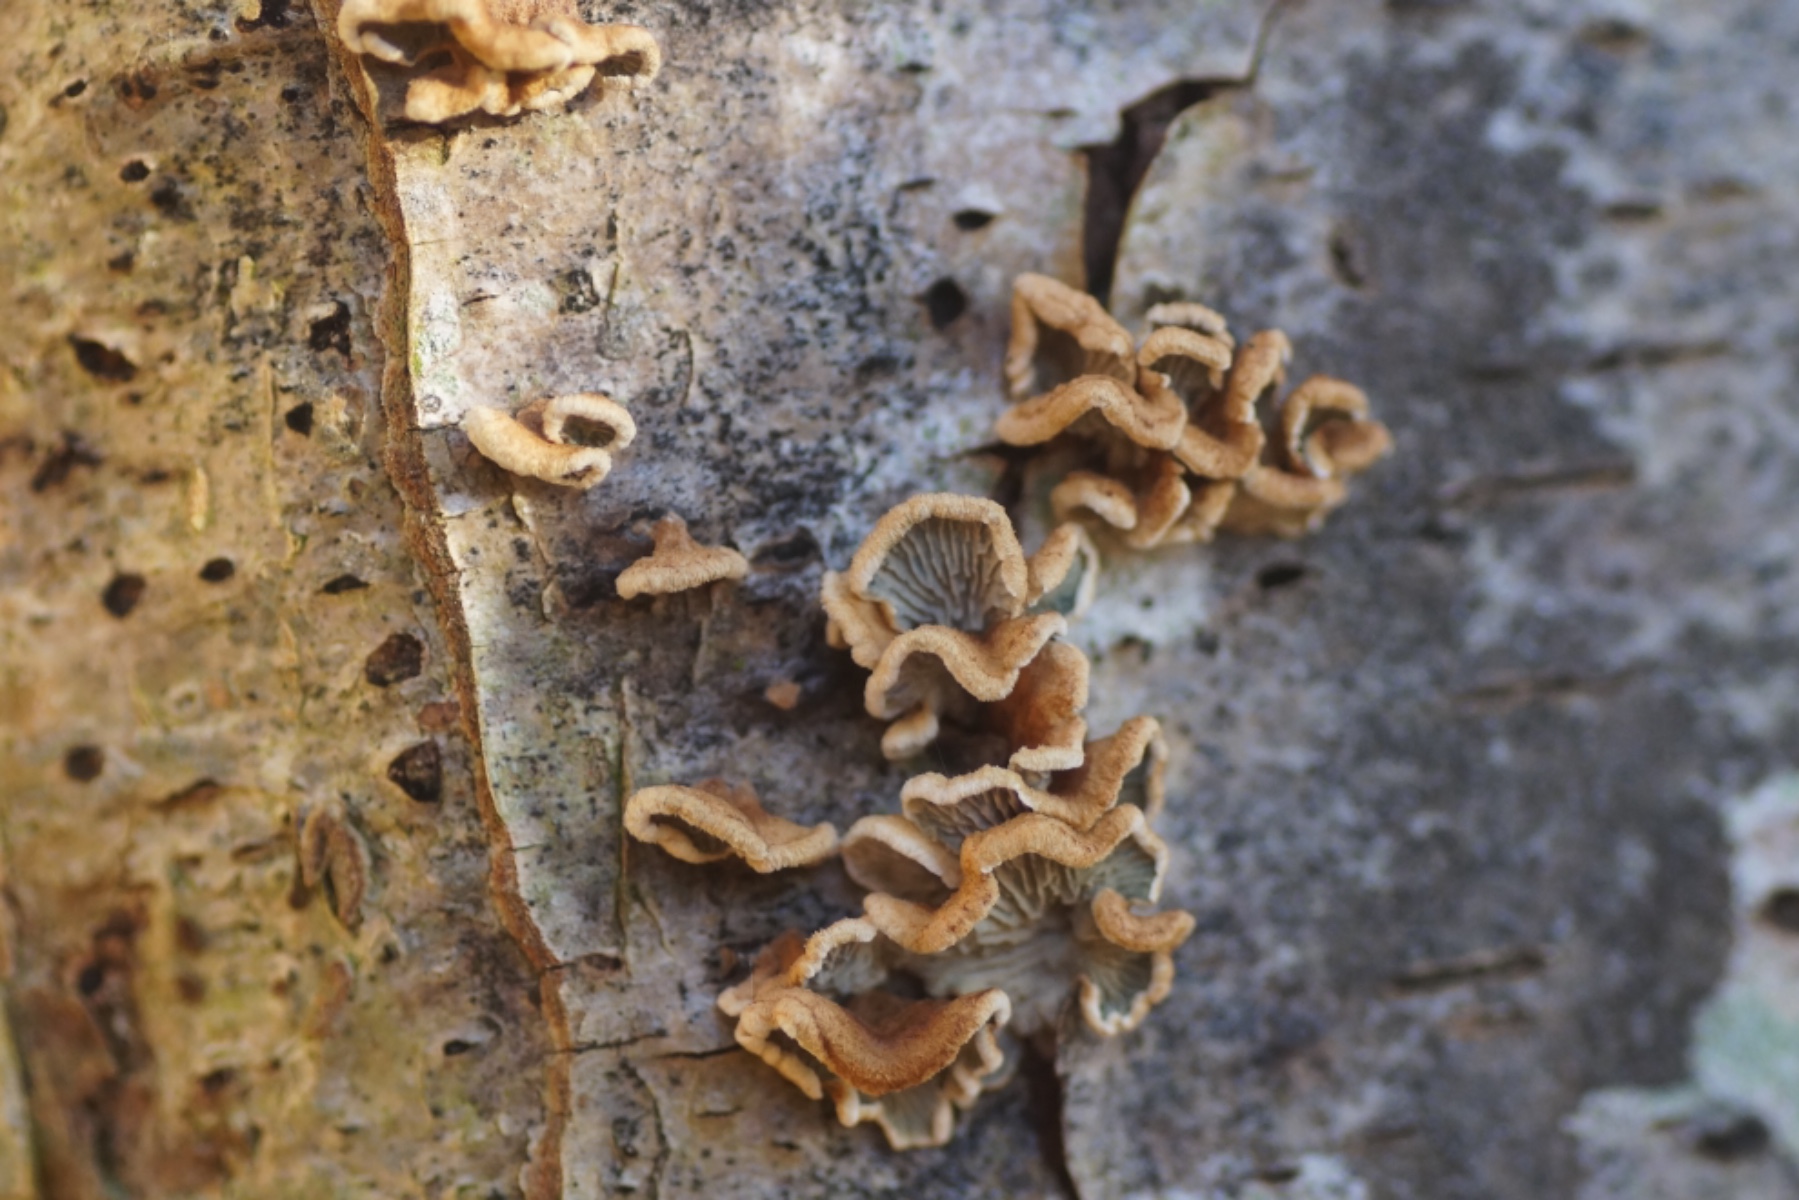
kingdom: Fungi
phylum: Basidiomycota
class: Agaricomycetes
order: Amylocorticiales
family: Amylocorticiaceae
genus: Plicaturopsis
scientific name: Plicaturopsis crispa
